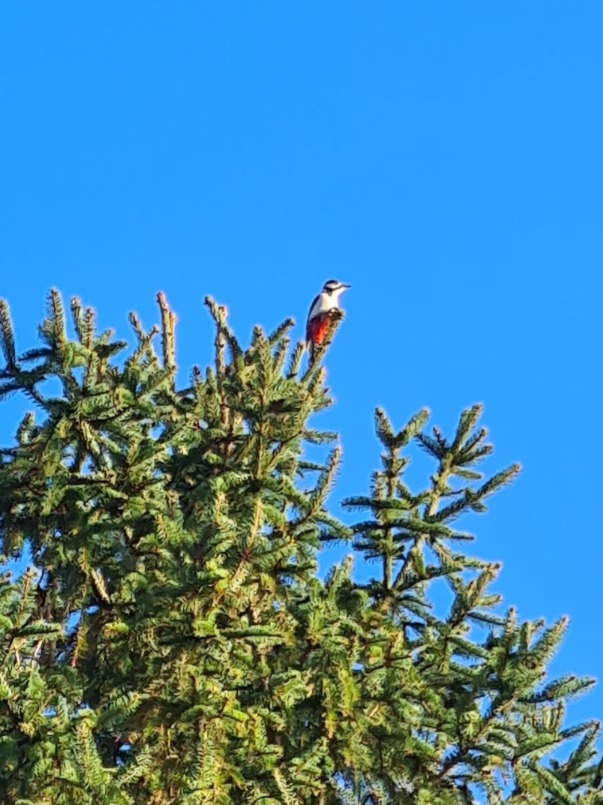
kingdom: Animalia
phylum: Chordata
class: Aves
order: Piciformes
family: Picidae
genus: Dendrocopos
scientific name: Dendrocopos major
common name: Stor flagspætte
